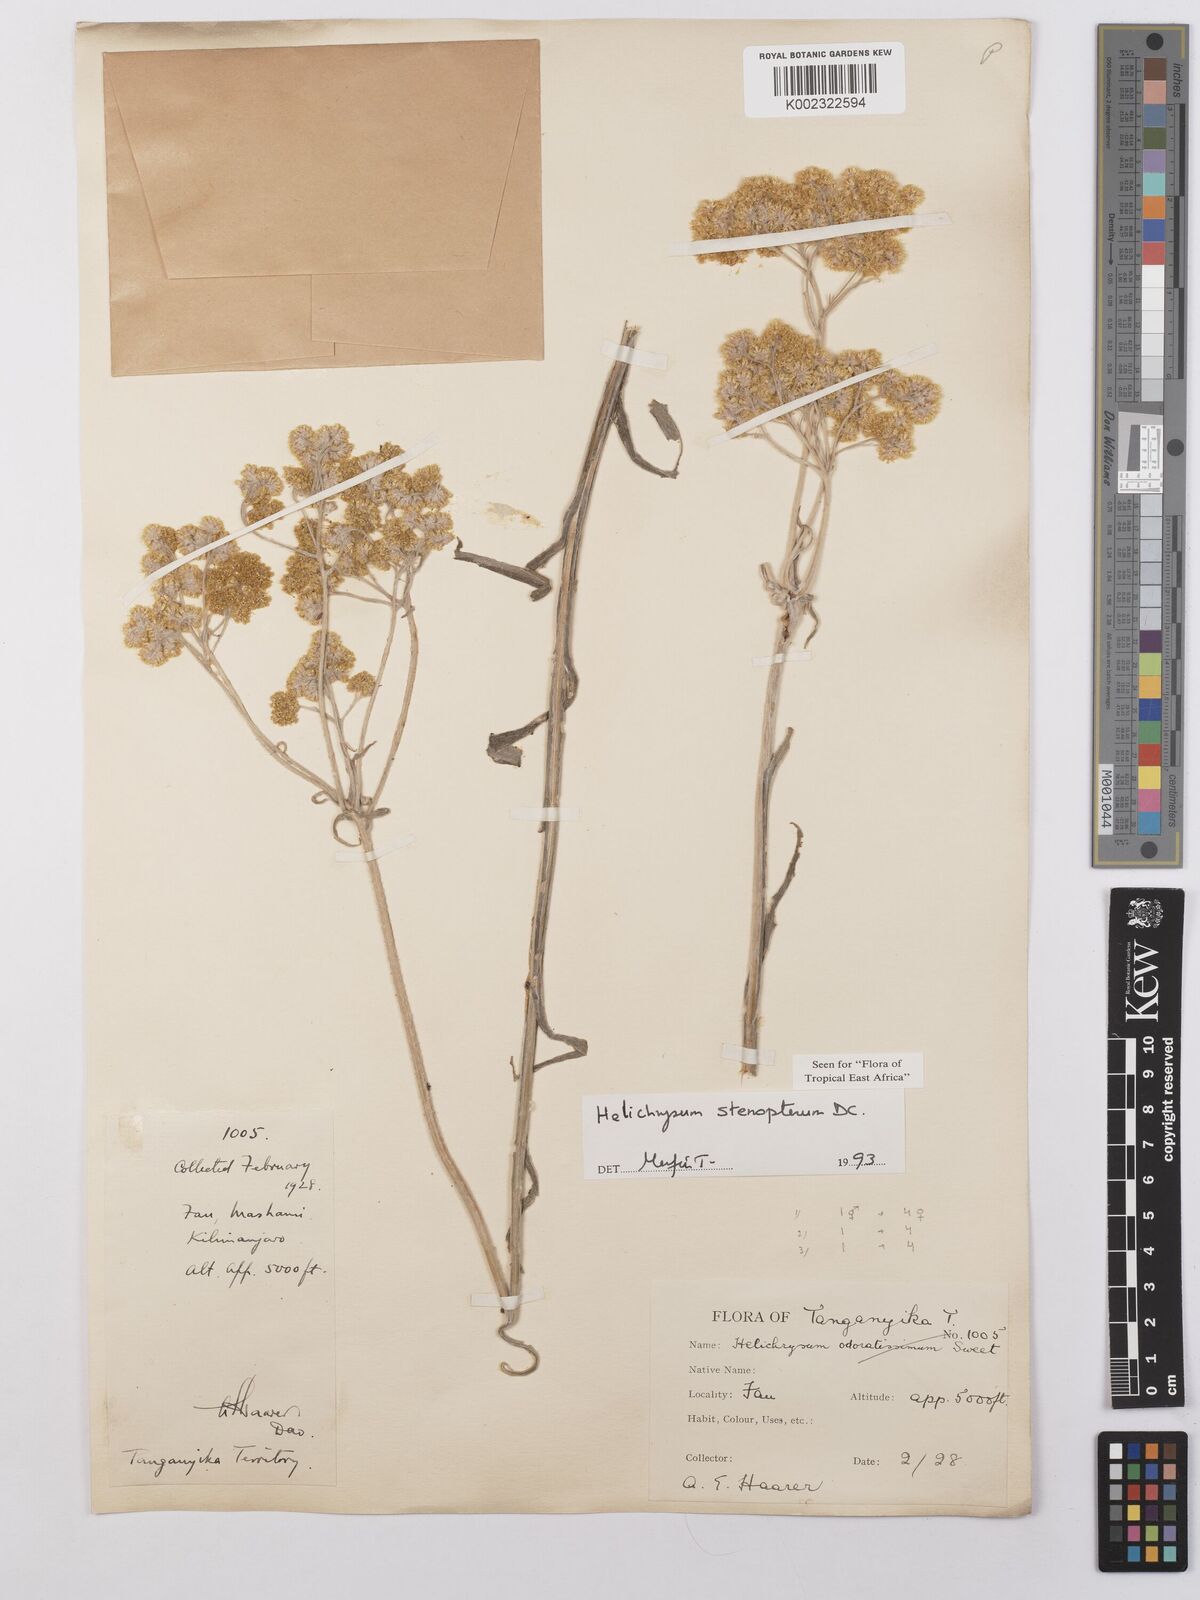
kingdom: Plantae
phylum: Tracheophyta
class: Magnoliopsida
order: Asterales
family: Asteraceae
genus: Helichrysum
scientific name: Helichrysum stenopterum
